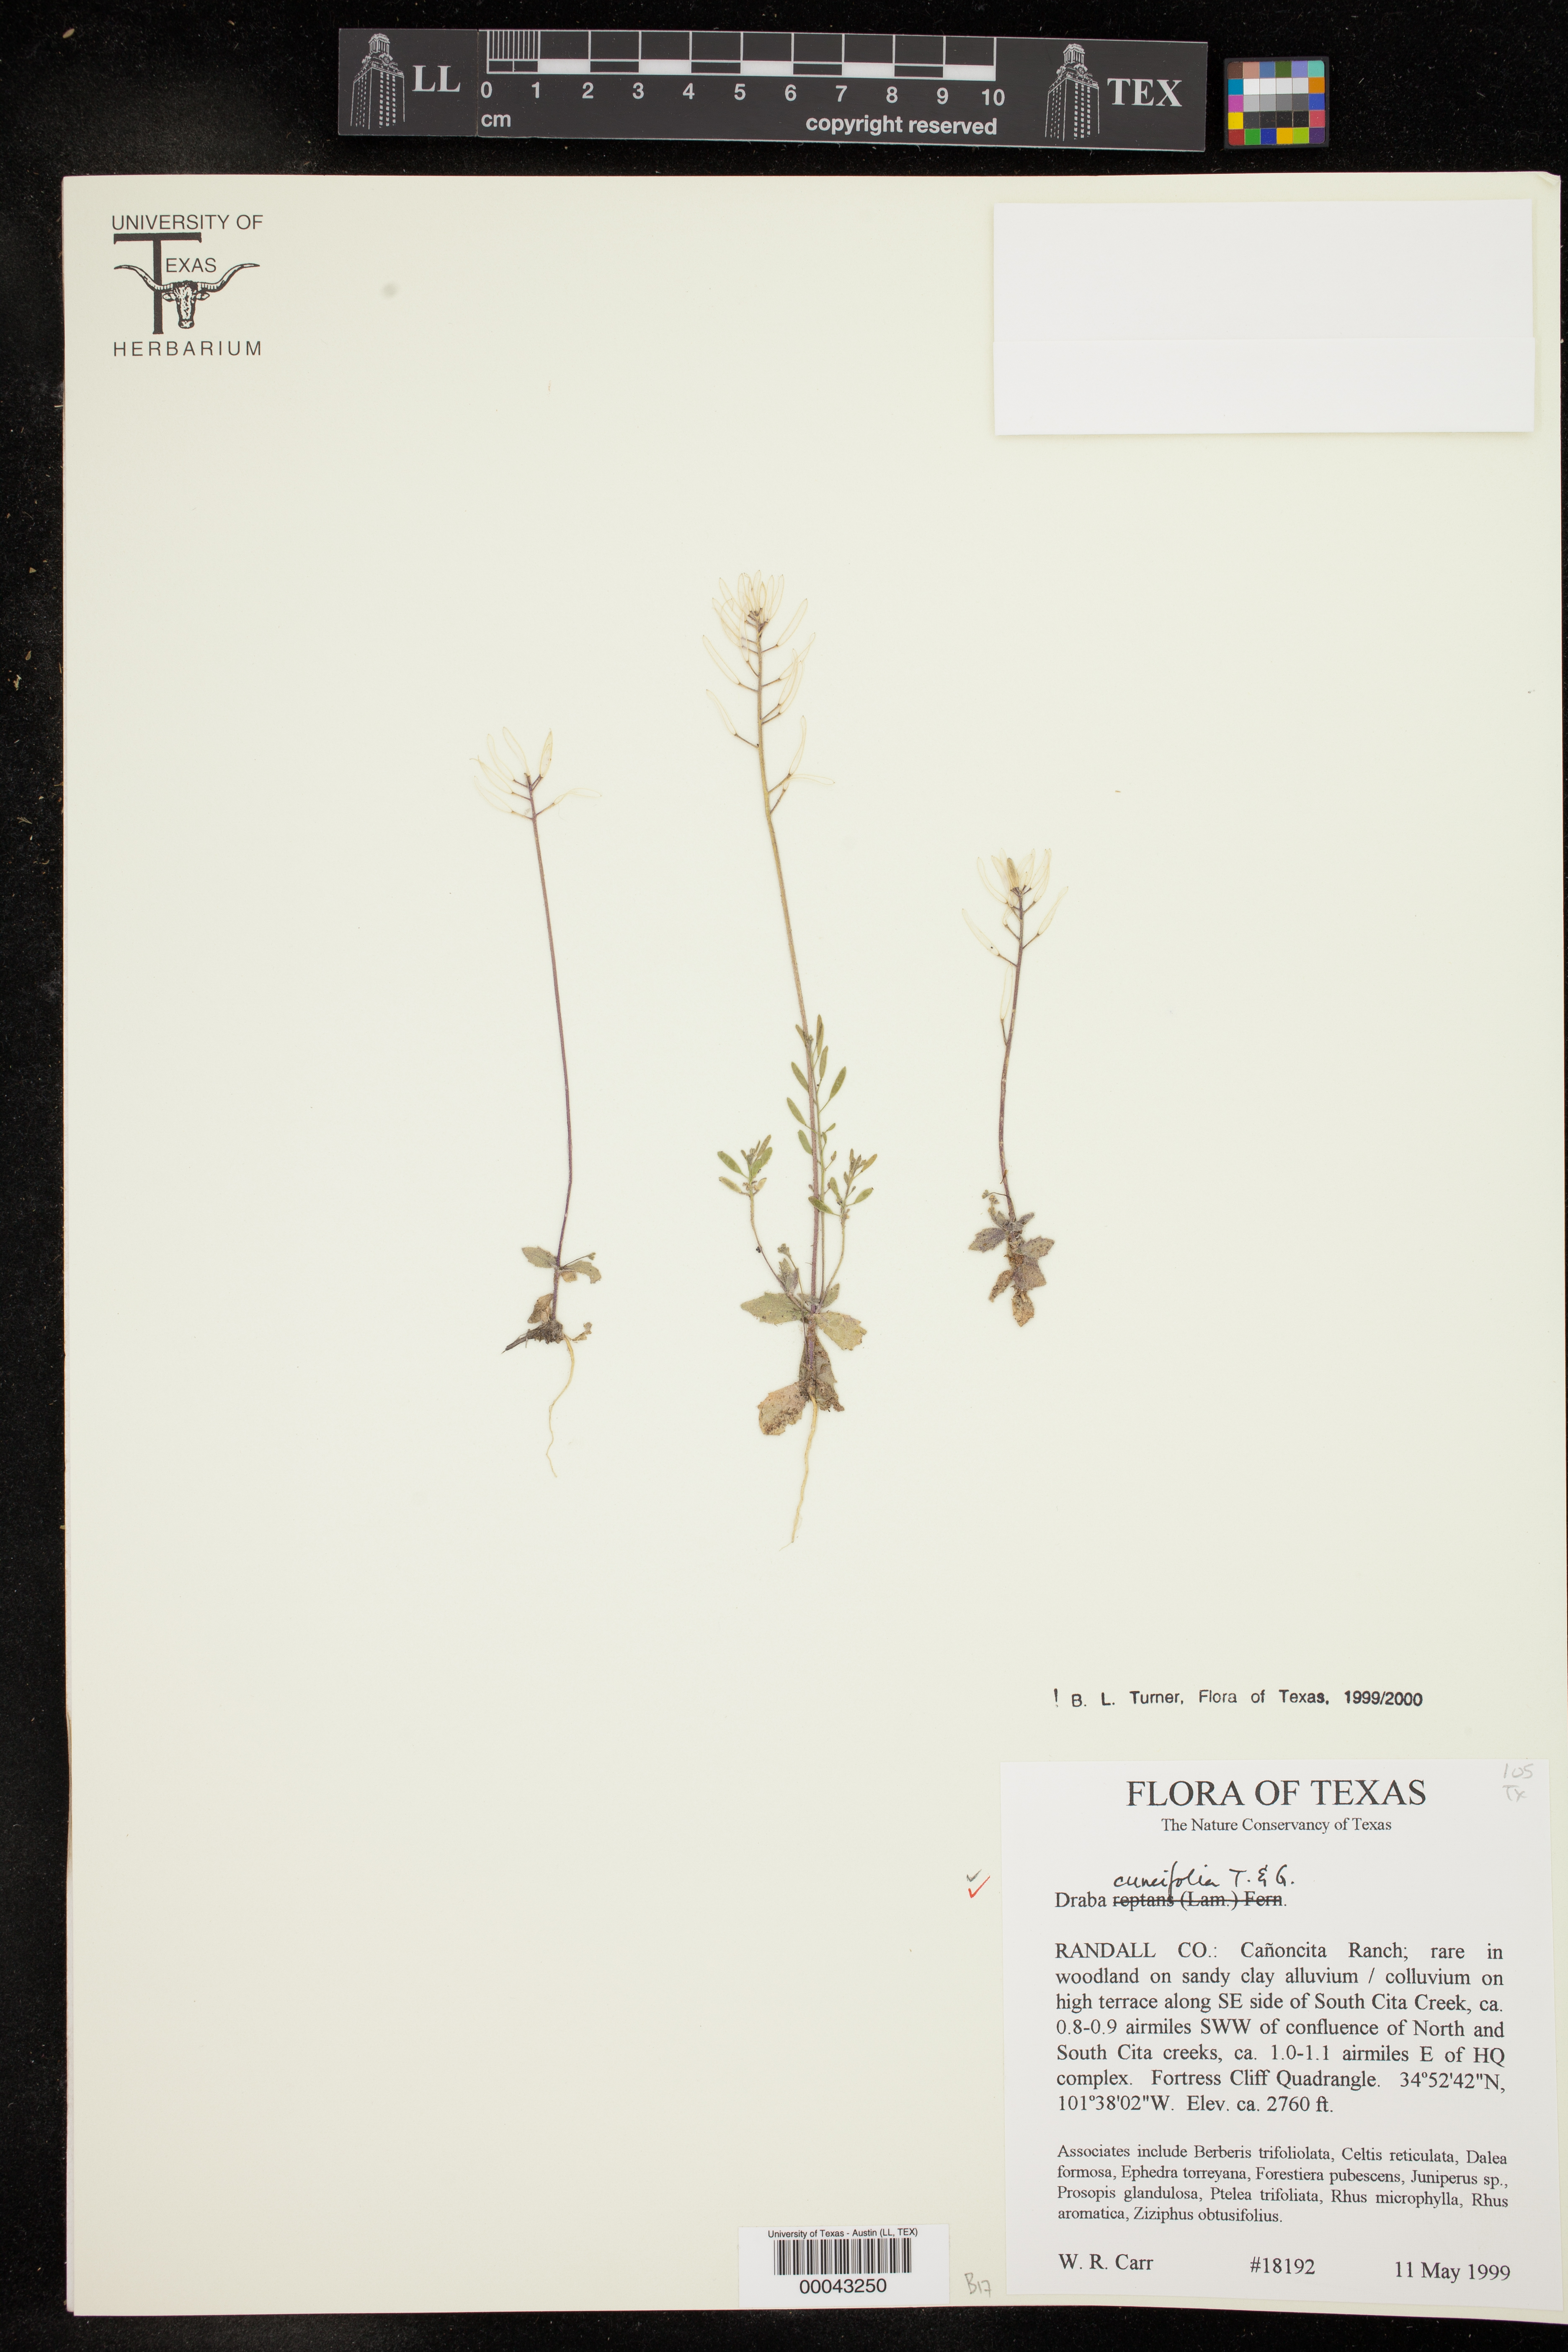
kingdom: Plantae
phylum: Tracheophyta
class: Magnoliopsida
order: Brassicales
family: Brassicaceae
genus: Tomostima
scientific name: Tomostima cuneifolia
